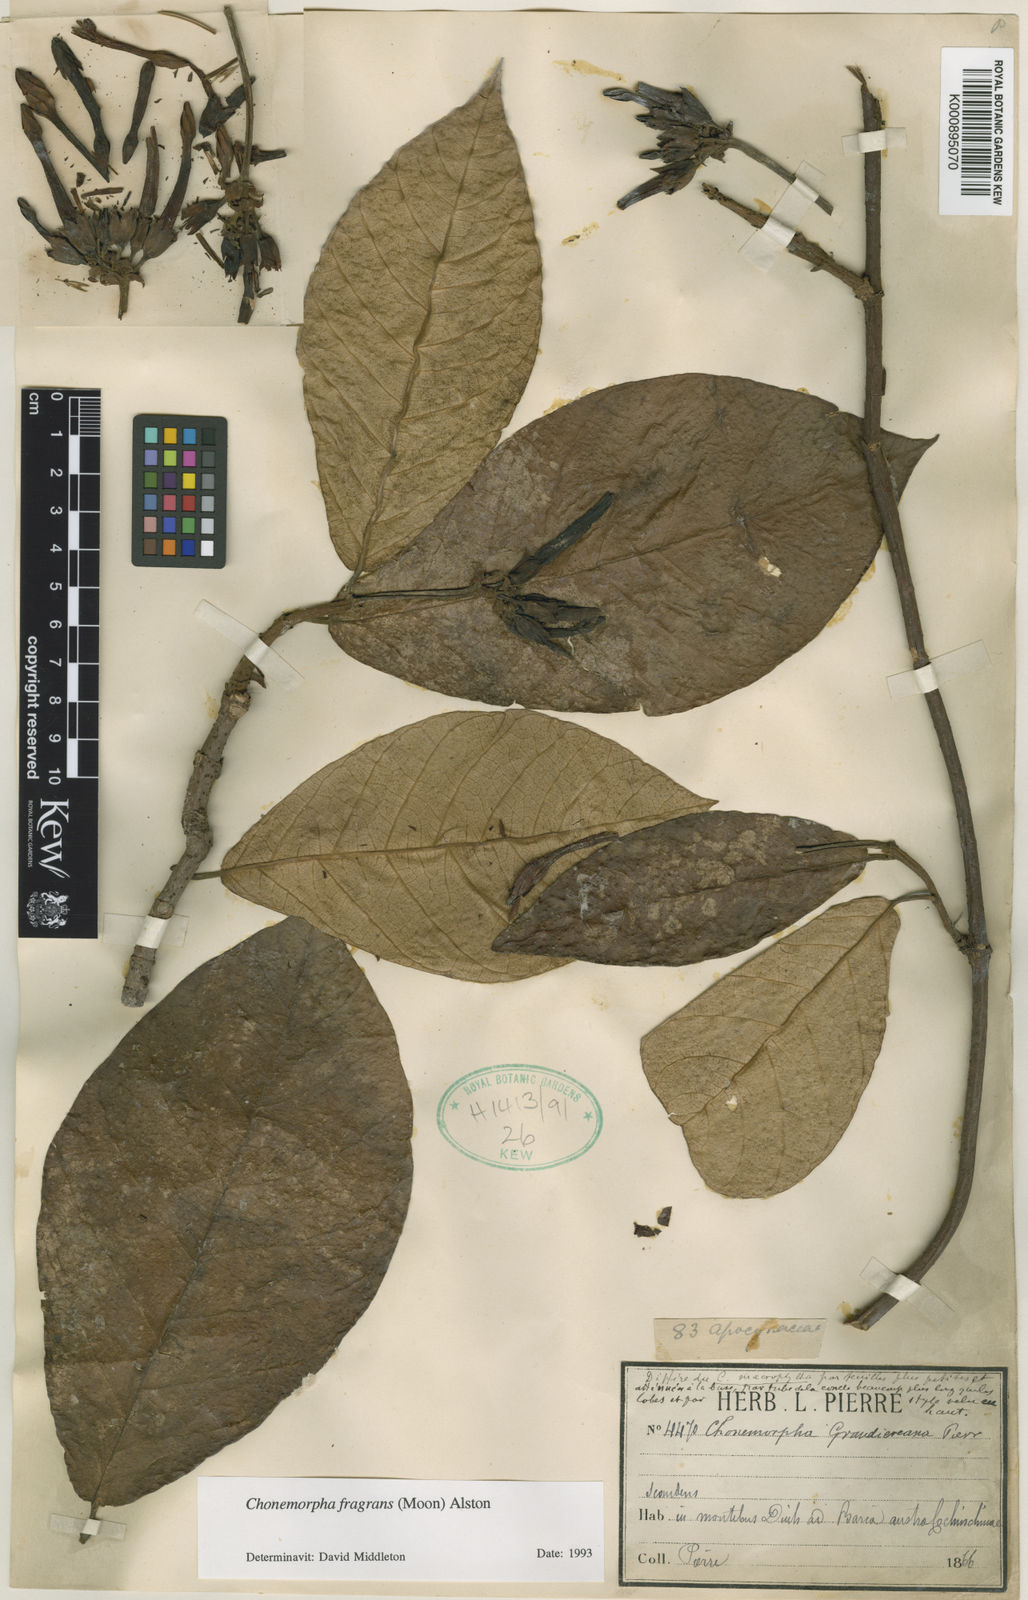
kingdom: Plantae
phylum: Tracheophyta
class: Magnoliopsida
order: Gentianales
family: Apocynaceae
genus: Chonemorpha
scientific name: Chonemorpha fragrans
